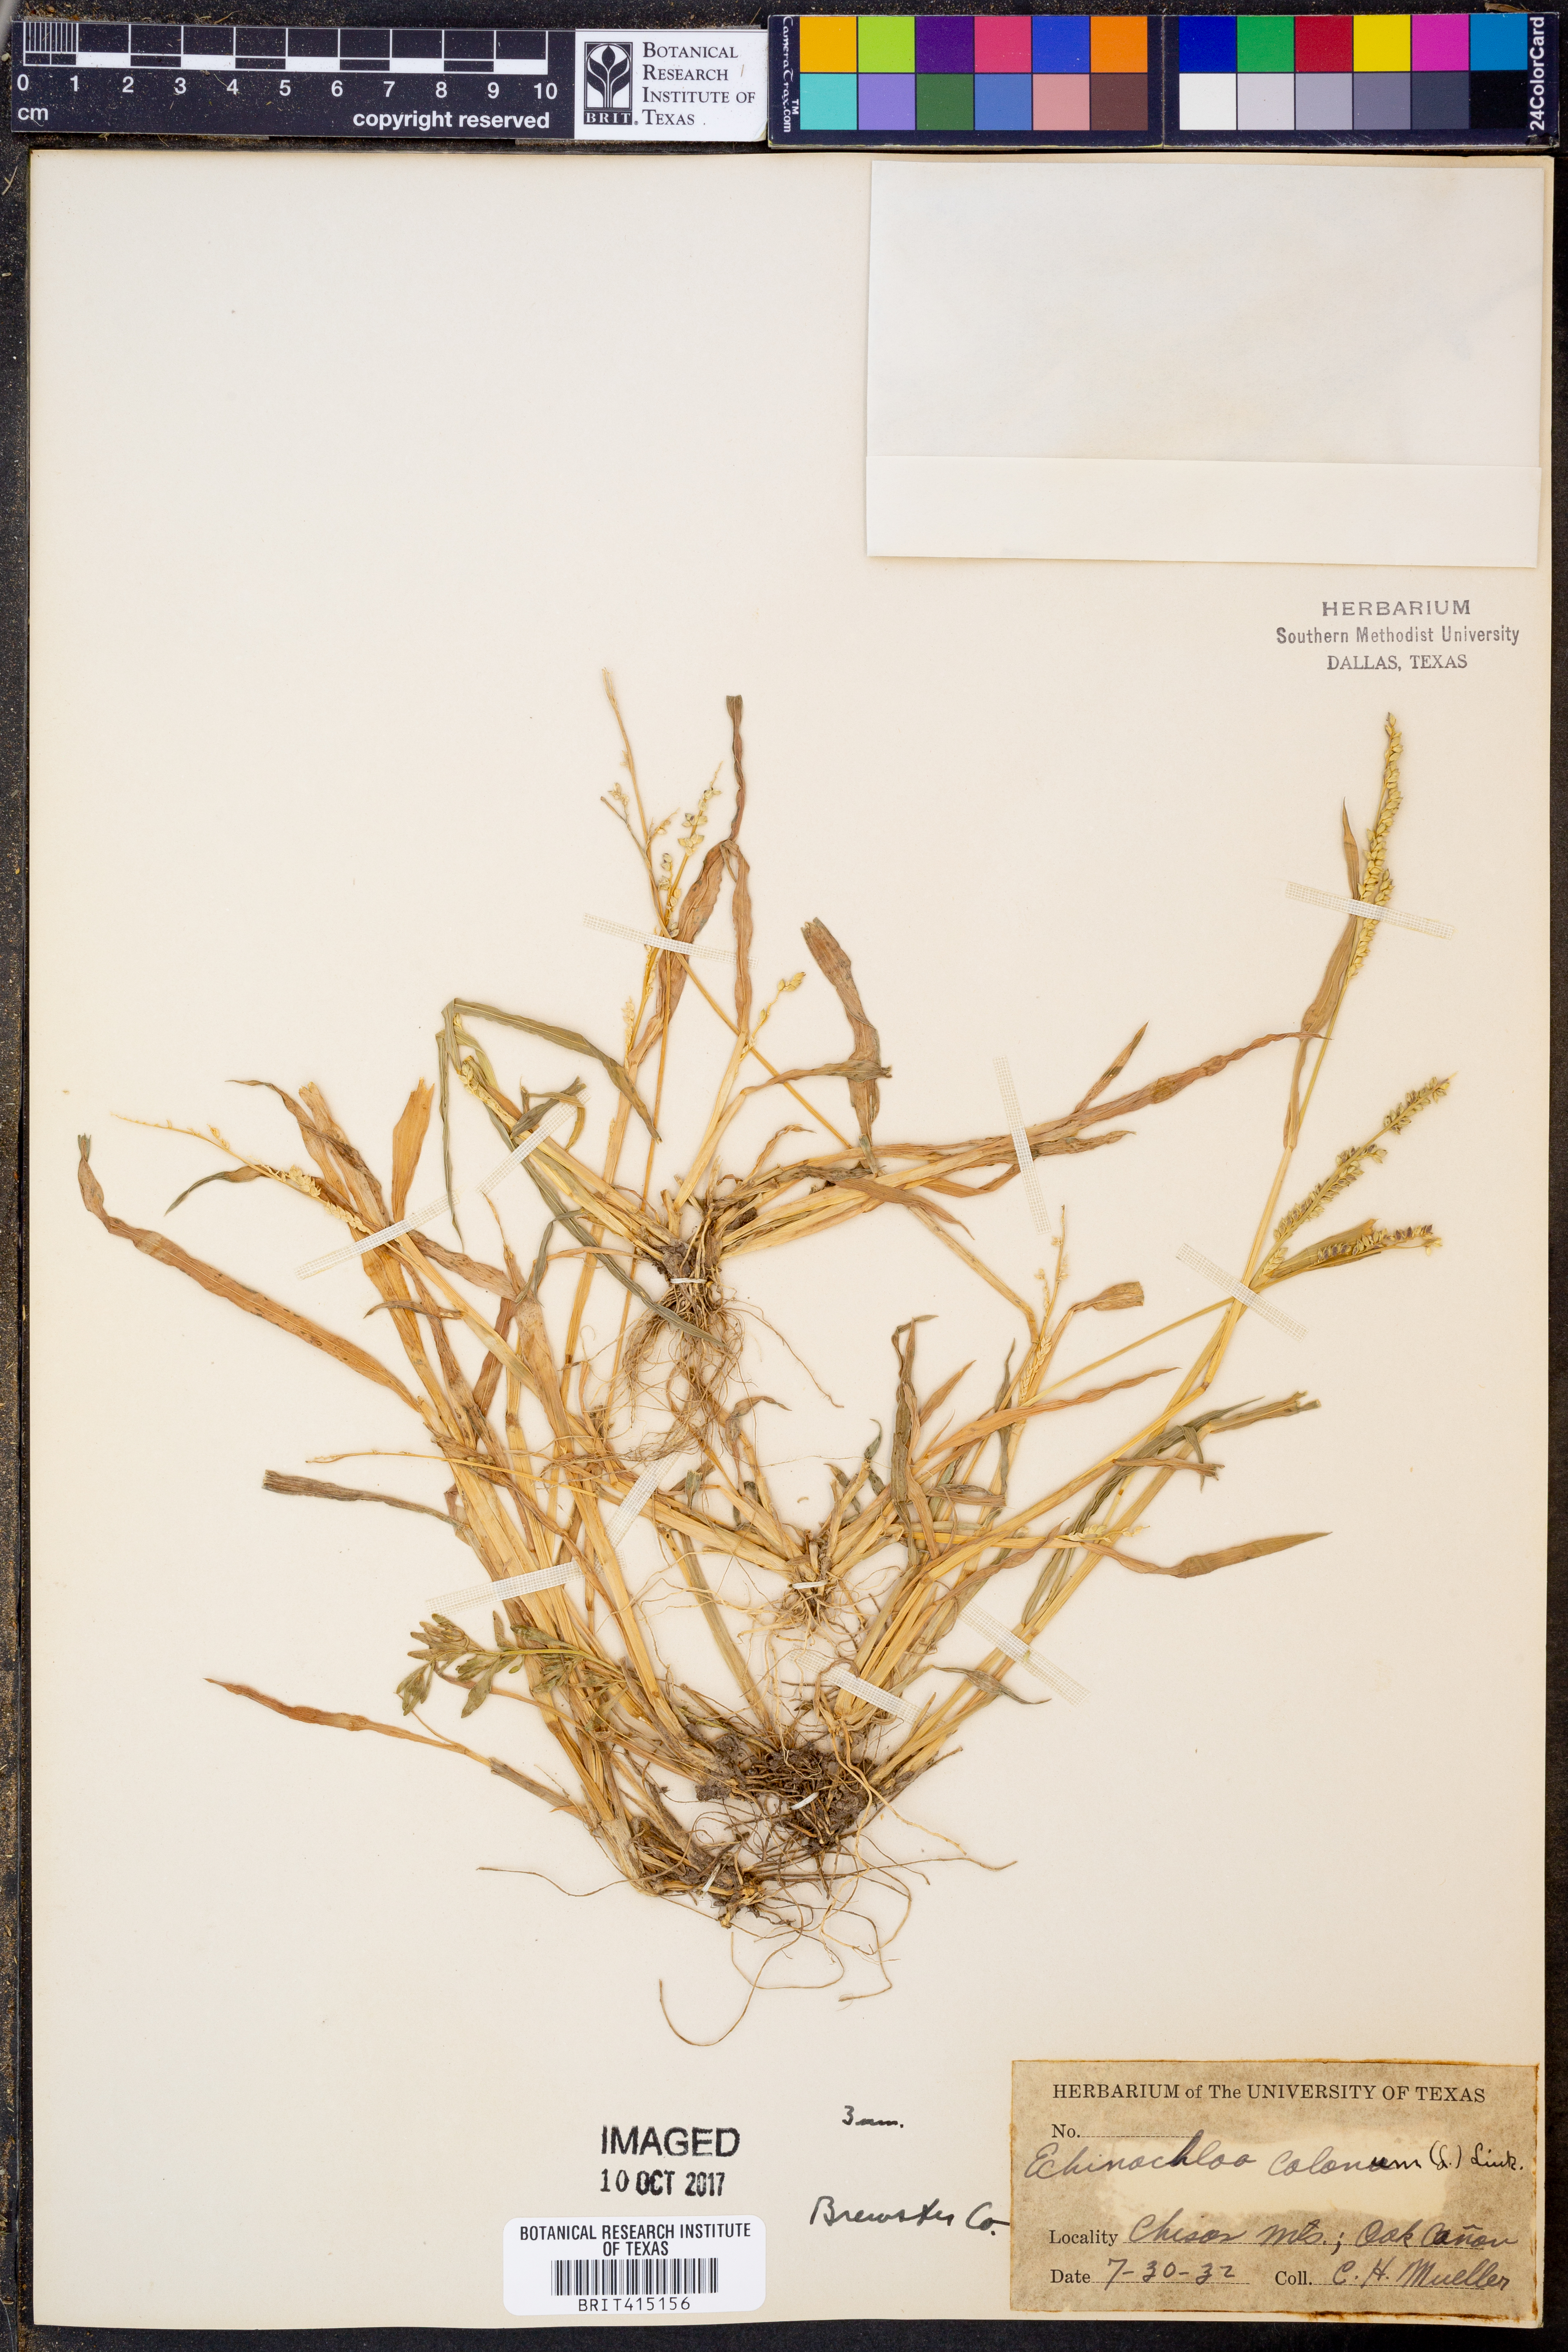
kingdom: Plantae
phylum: Tracheophyta
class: Liliopsida
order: Poales
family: Poaceae
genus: Echinochloa
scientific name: Echinochloa colonum
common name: Jungle rice
